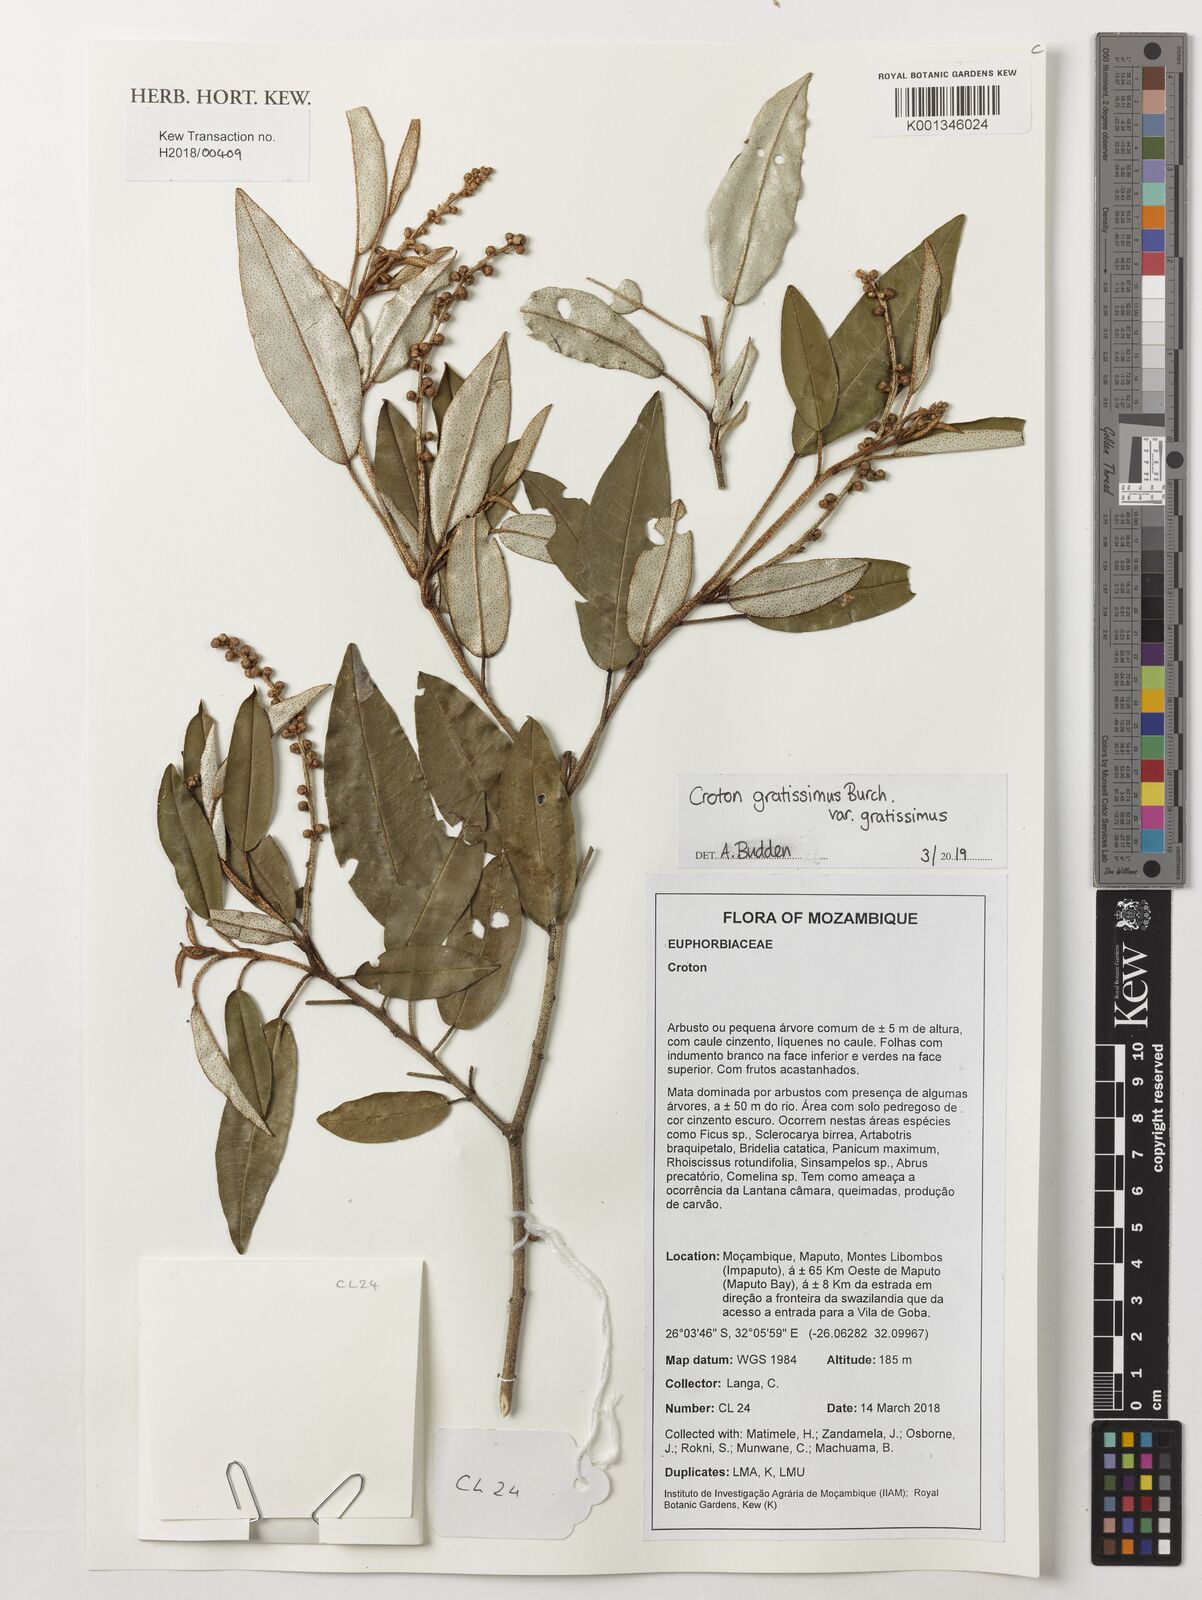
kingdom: Plantae
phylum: Tracheophyta
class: Magnoliopsida
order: Malpighiales
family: Euphorbiaceae
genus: Croton
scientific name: Croton
